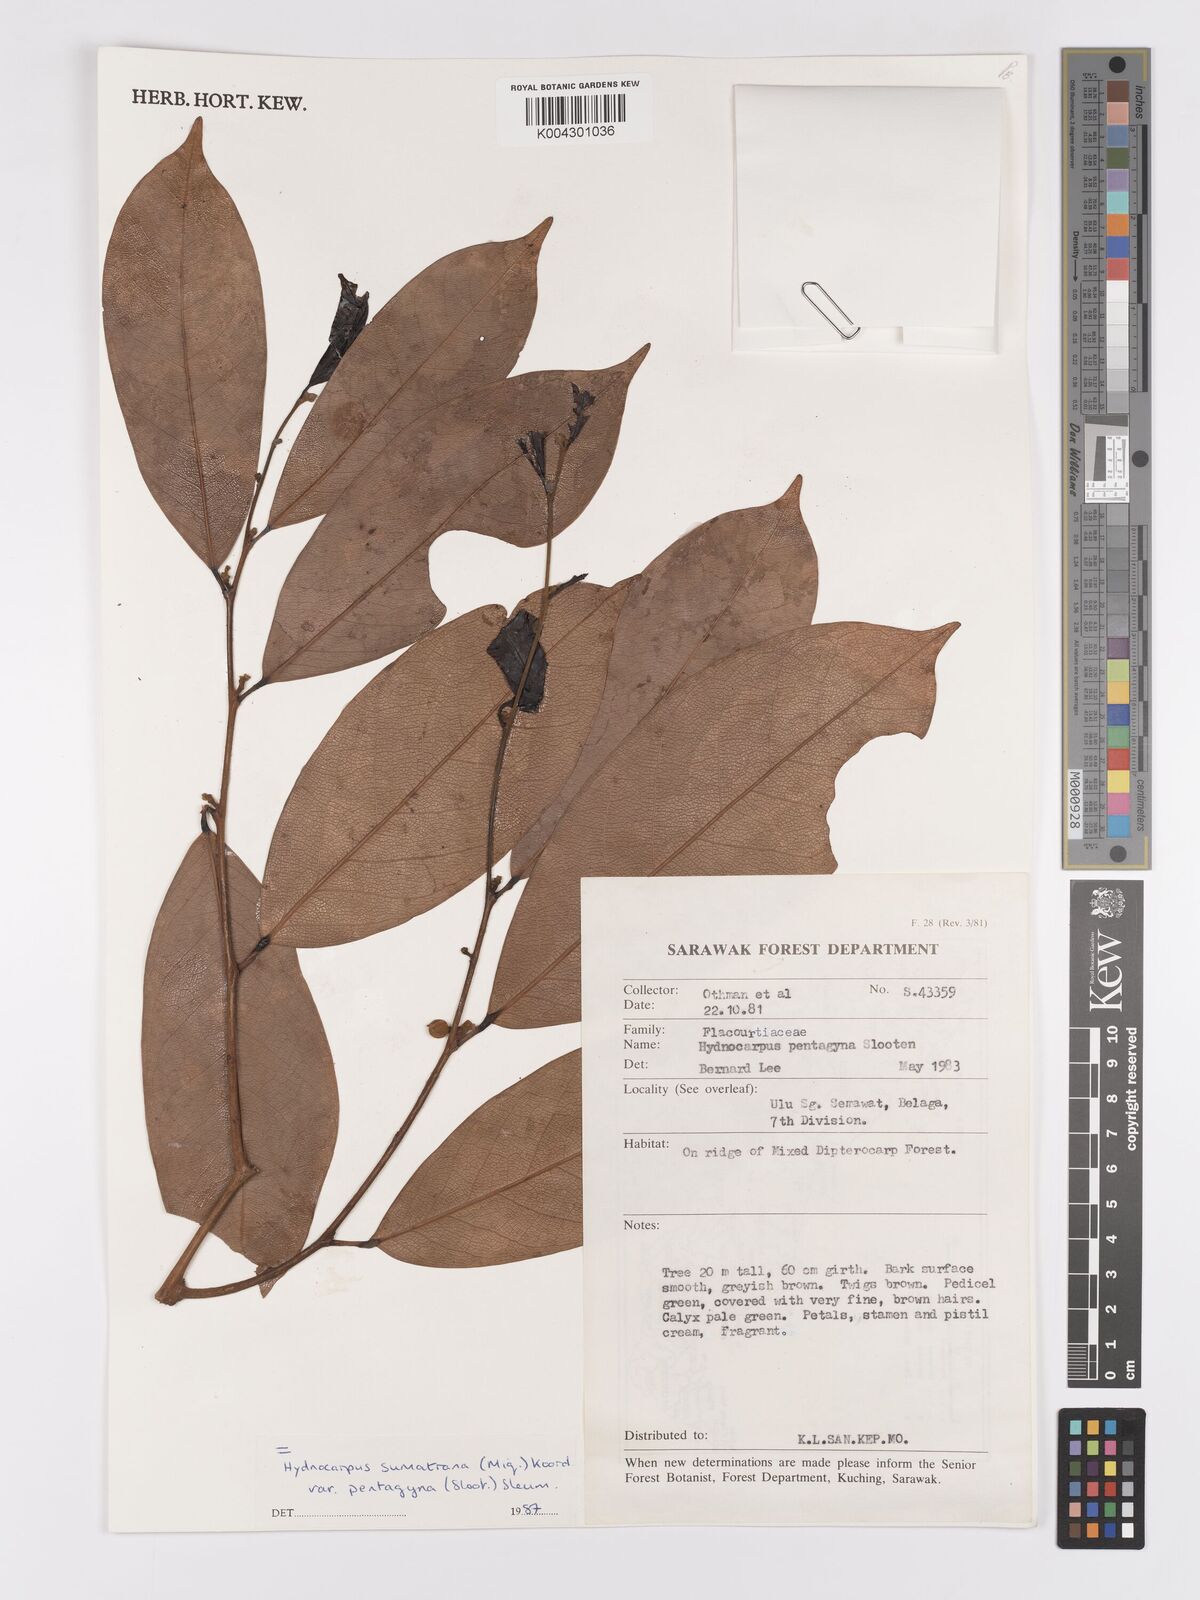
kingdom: Plantae
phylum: Tracheophyta
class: Magnoliopsida
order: Malpighiales
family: Achariaceae
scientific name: Achariaceae
